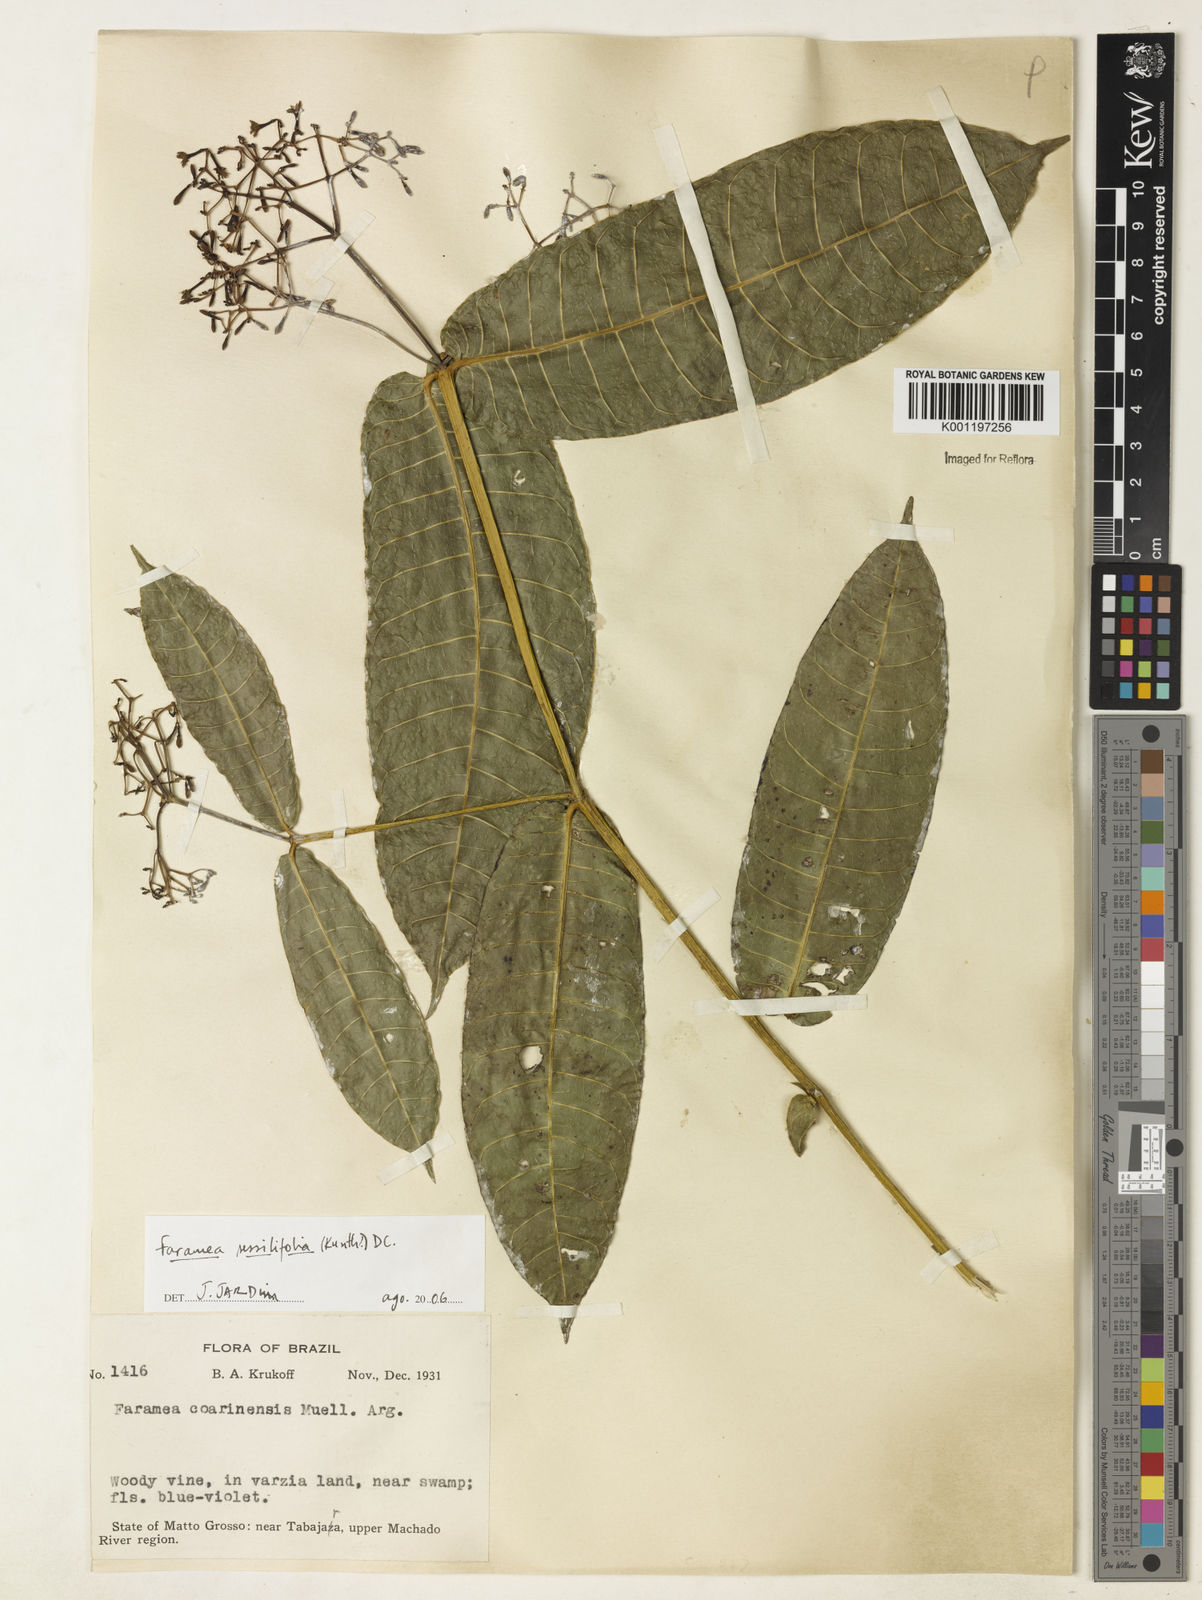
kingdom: Plantae
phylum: Tracheophyta
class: Magnoliopsida
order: Gentianales
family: Rubiaceae
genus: Faramea
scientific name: Faramea sessilifolia
